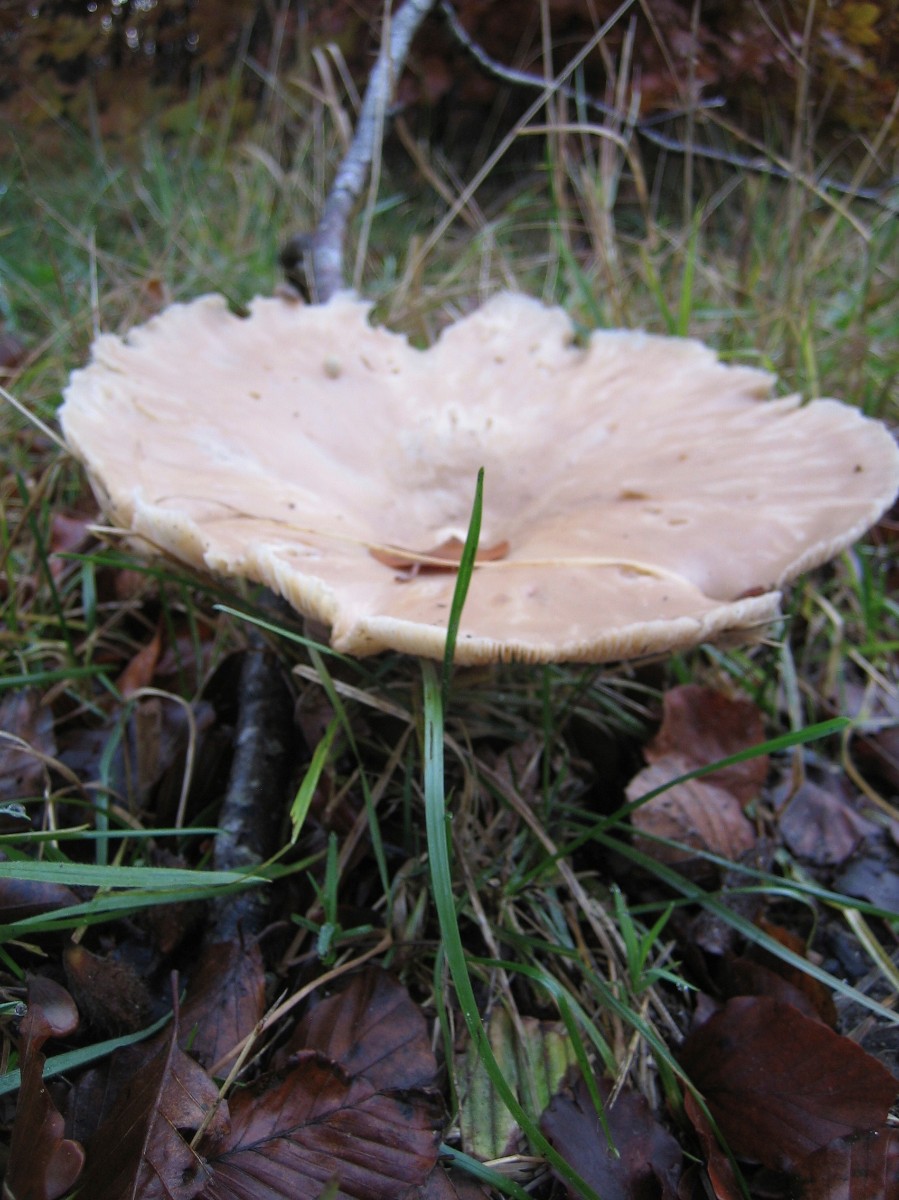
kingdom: Fungi
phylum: Basidiomycota
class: Agaricomycetes
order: Agaricales
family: Tricholomataceae
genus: Infundibulicybe
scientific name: Infundibulicybe geotropa
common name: stor tragthat
